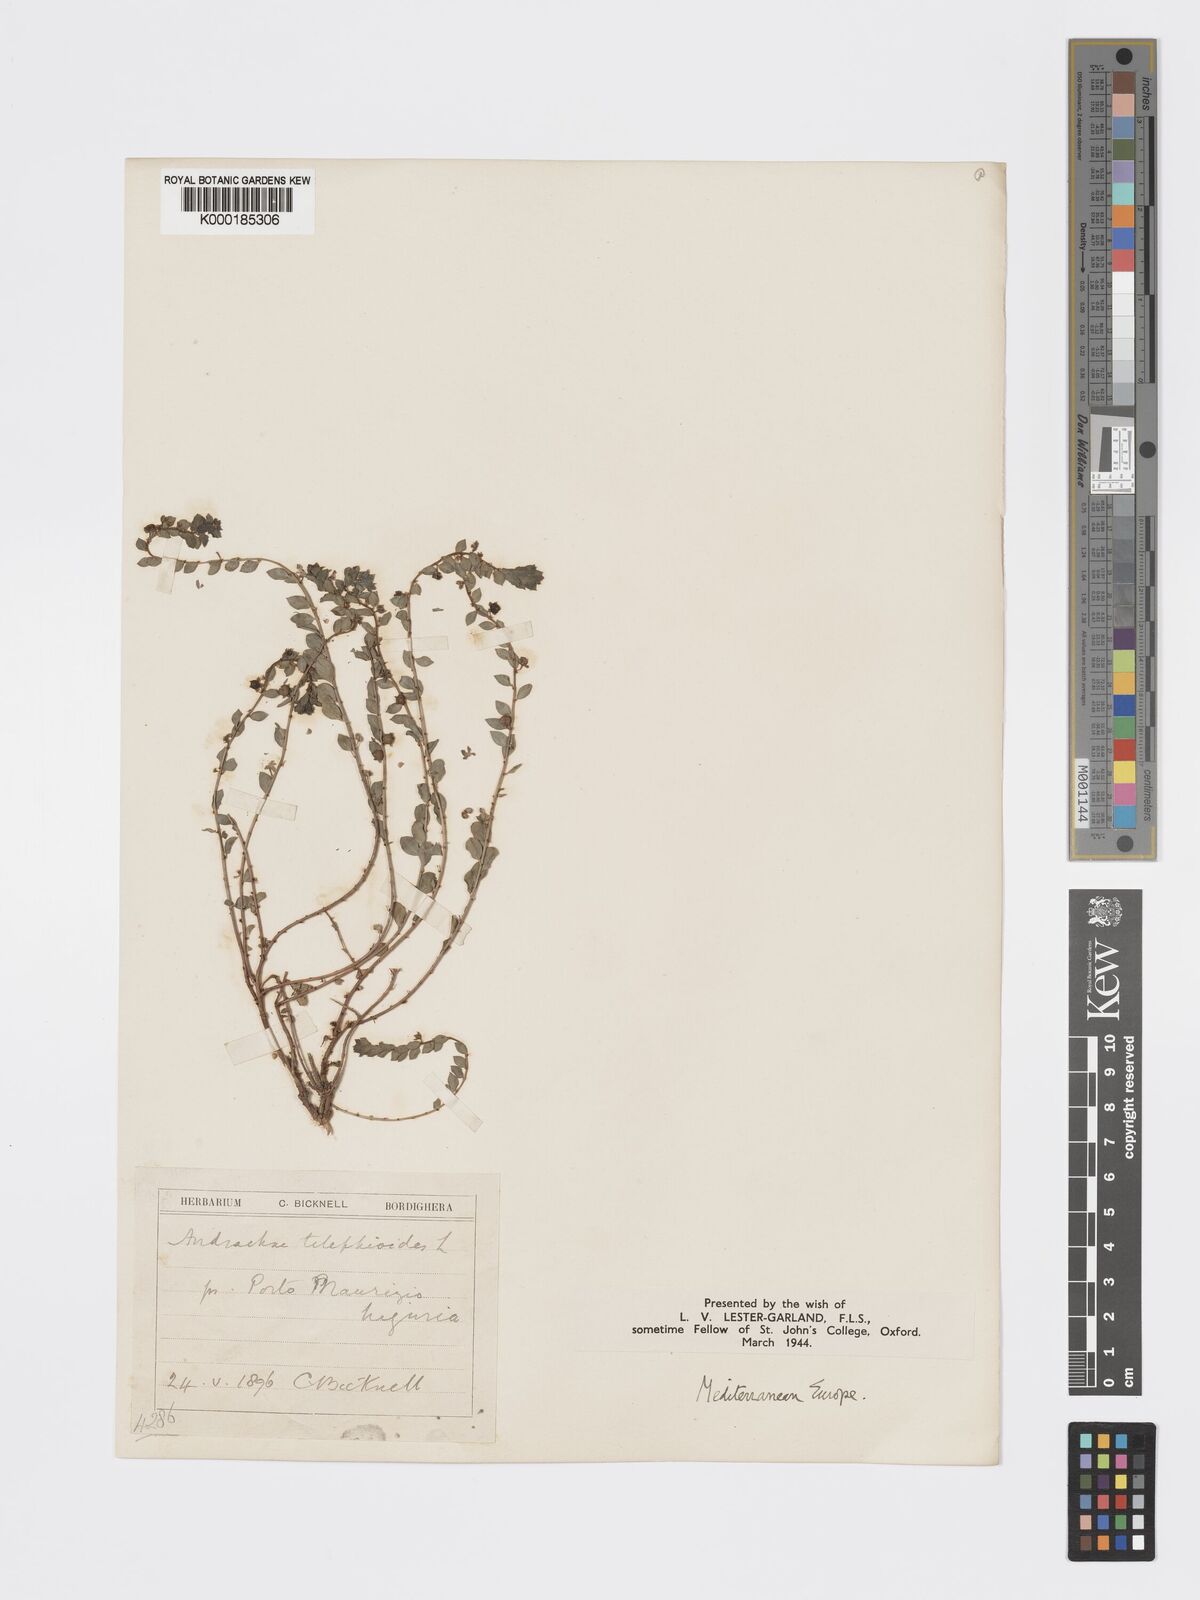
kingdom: Plantae
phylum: Tracheophyta
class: Magnoliopsida
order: Malpighiales
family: Phyllanthaceae
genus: Andrachne
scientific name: Andrachne telephioides
